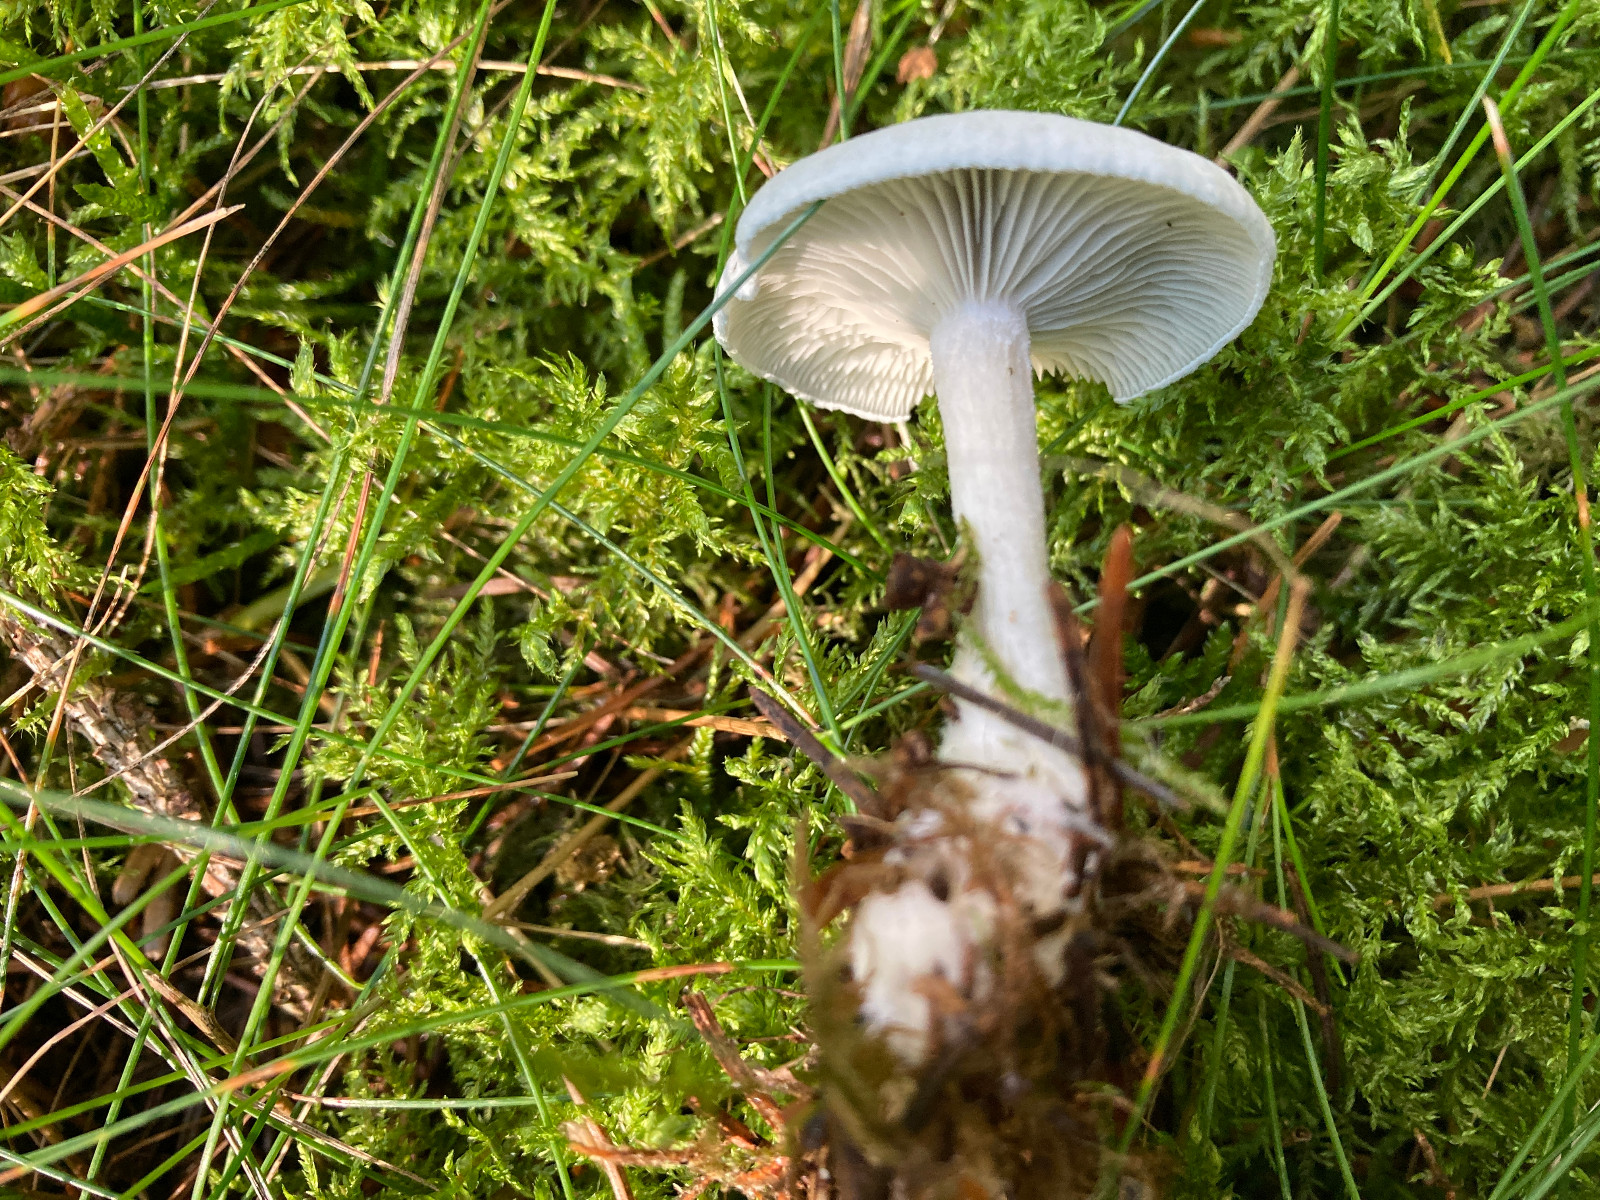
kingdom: Fungi
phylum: Basidiomycota
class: Agaricomycetes
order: Agaricales
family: Tricholomataceae
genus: Clitocybe
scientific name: Clitocybe odora
